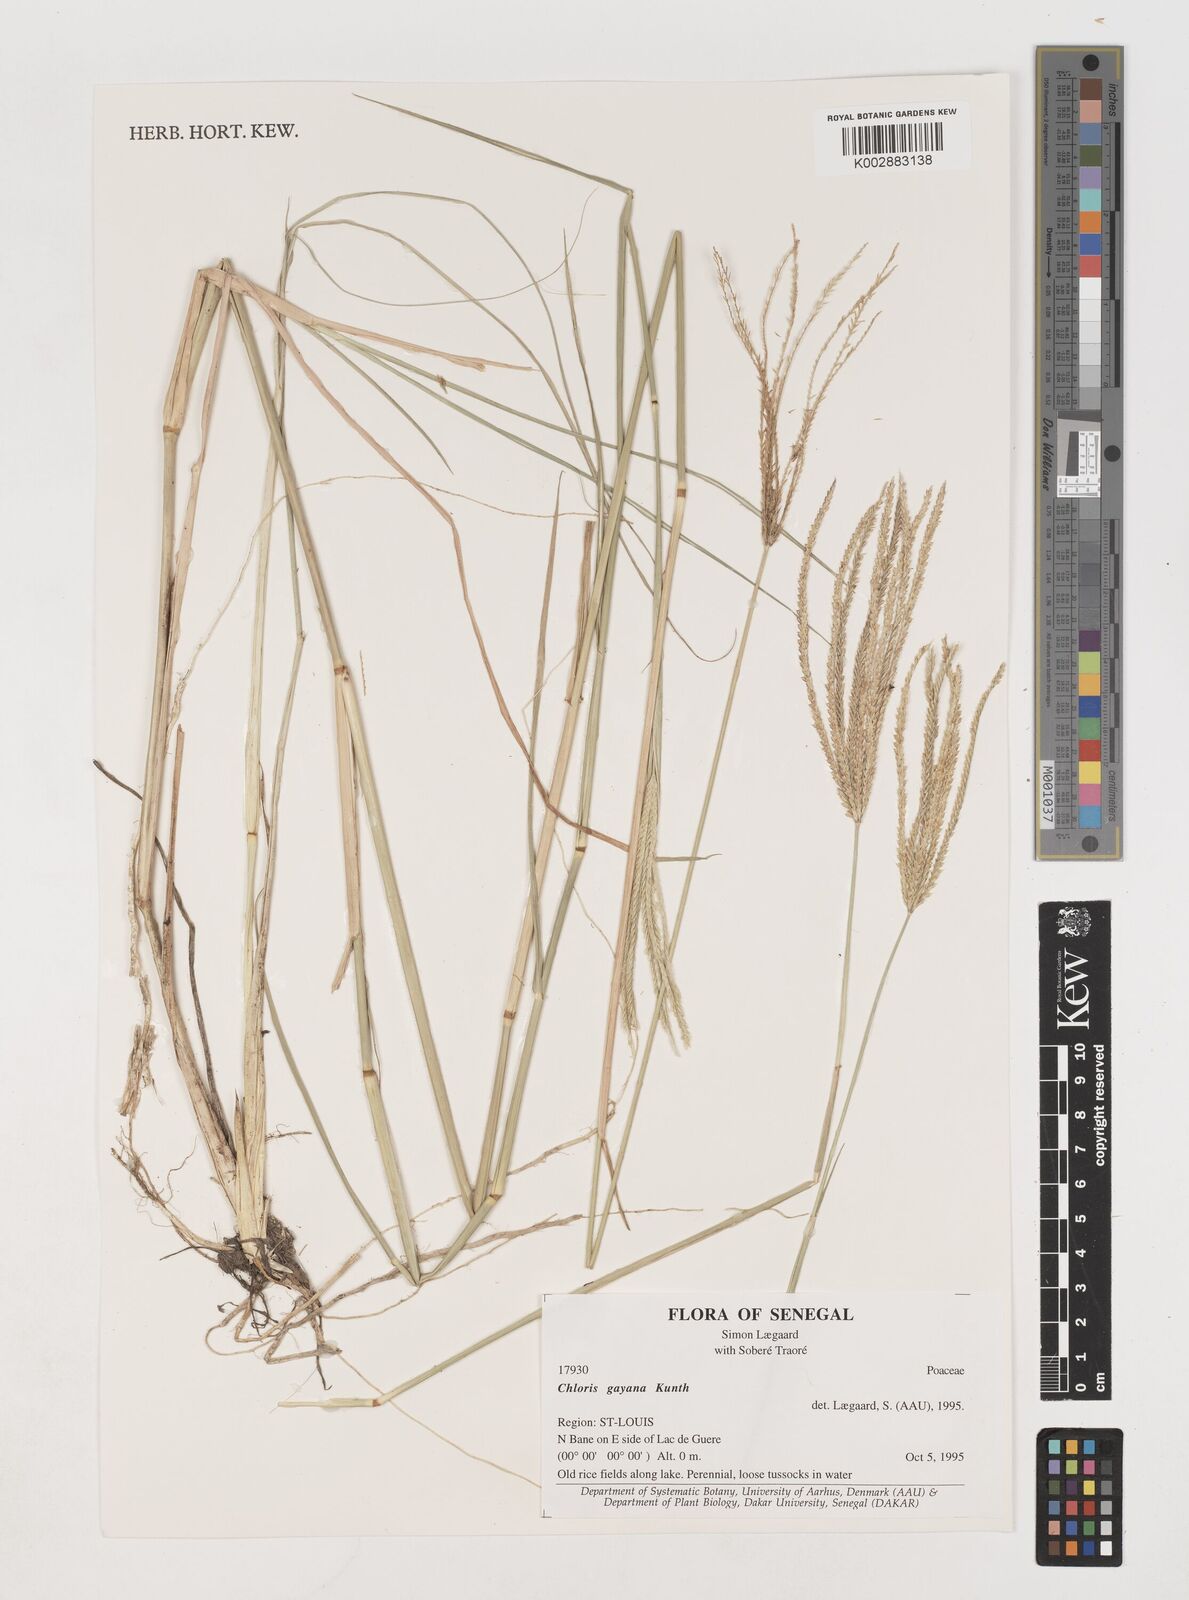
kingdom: Plantae
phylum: Tracheophyta
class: Liliopsida
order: Poales
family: Poaceae
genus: Chloris
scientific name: Chloris gayana
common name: Rhodes grass
